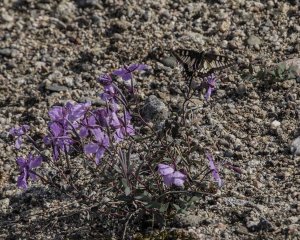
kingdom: Animalia
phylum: Arthropoda
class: Insecta
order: Lepidoptera
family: Papilionidae
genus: Papilio
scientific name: Papilio machaon
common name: Old World Swallowtail
